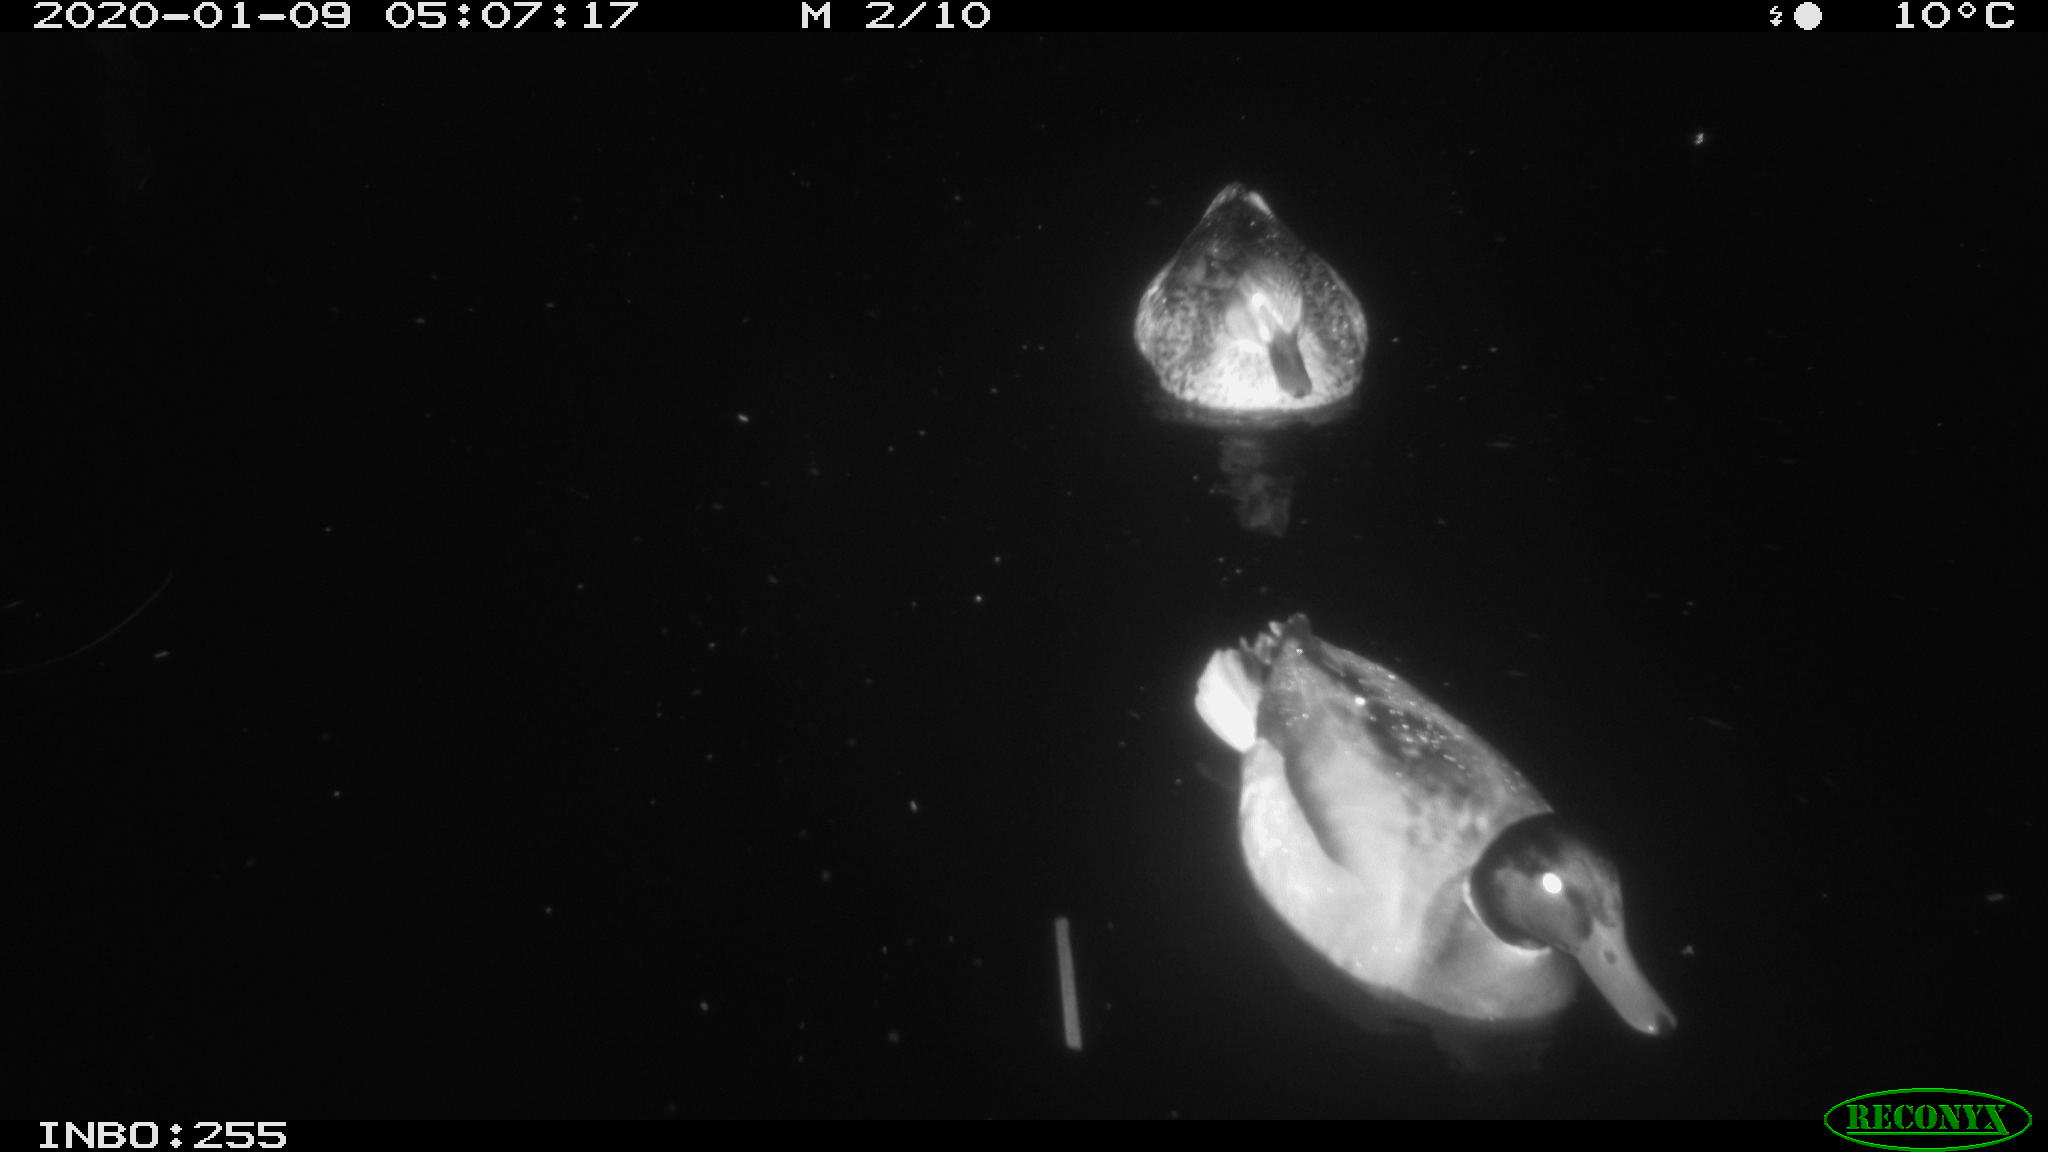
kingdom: Animalia
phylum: Chordata
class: Aves
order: Anseriformes
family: Anatidae
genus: Anas
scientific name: Anas platyrhynchos
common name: Mallard
